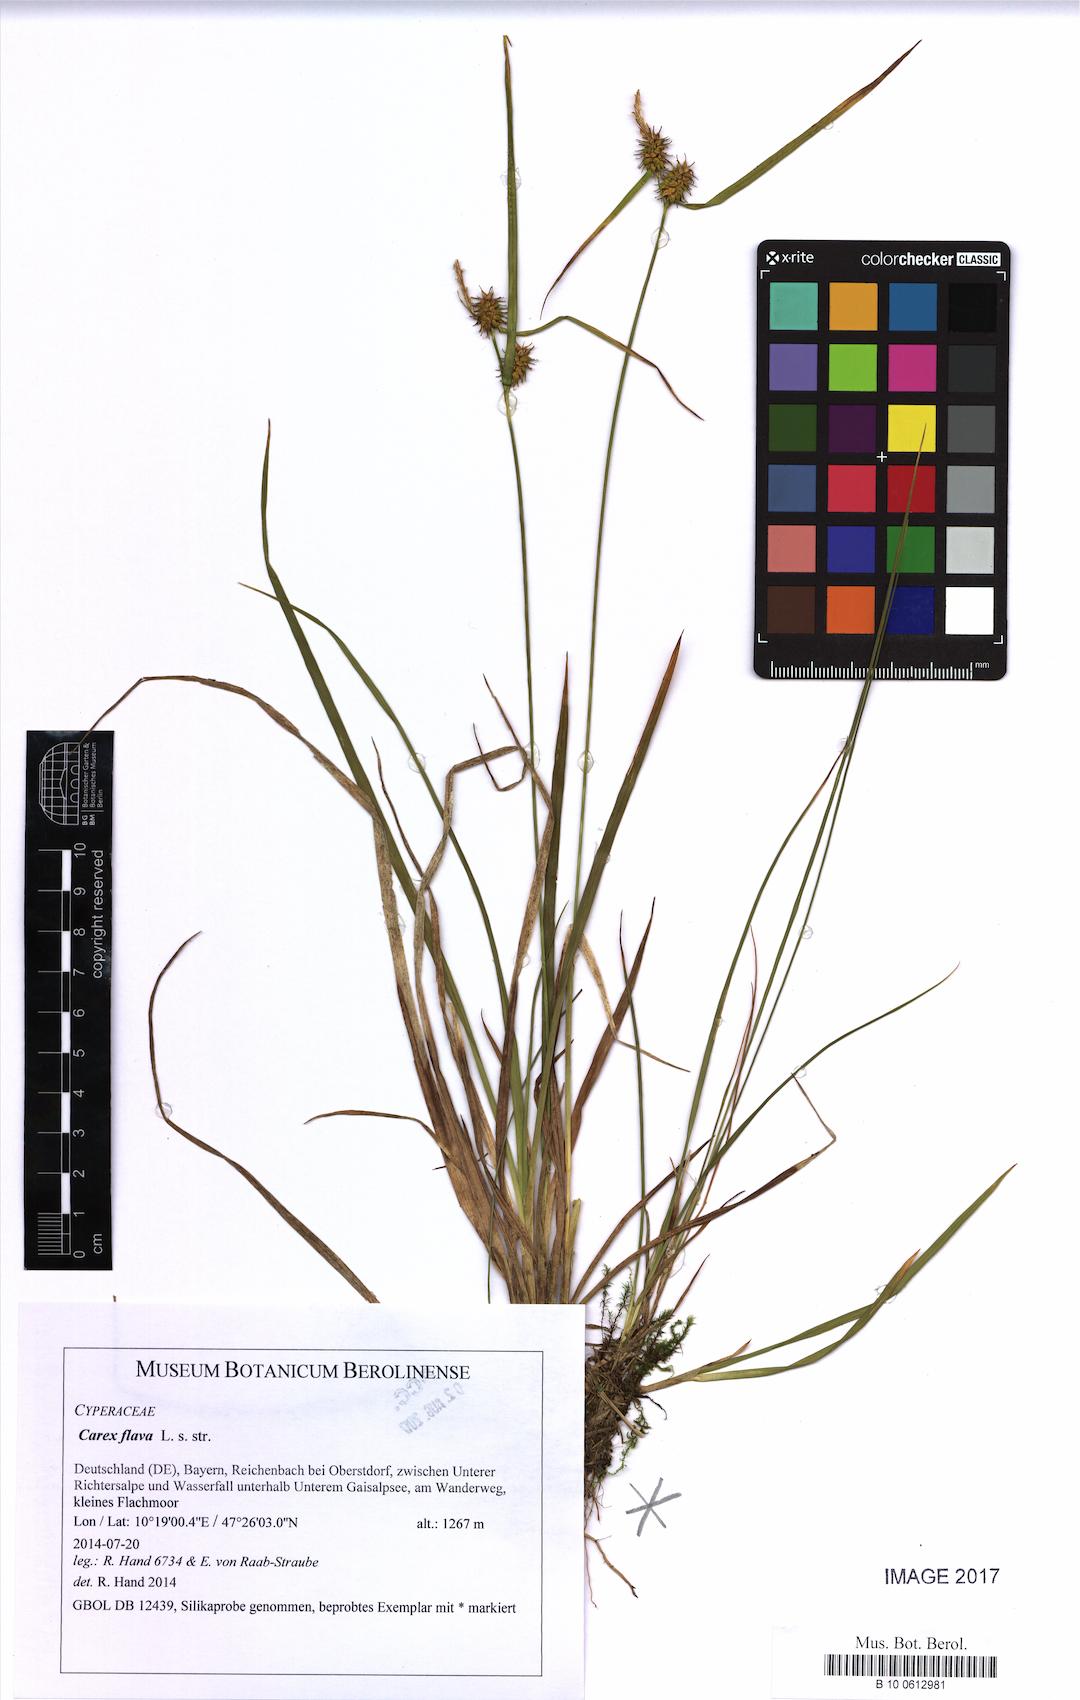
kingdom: Plantae
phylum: Tracheophyta
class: Liliopsida
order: Poales
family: Cyperaceae
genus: Carex
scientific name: Carex flava
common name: Large yellow-sedge
